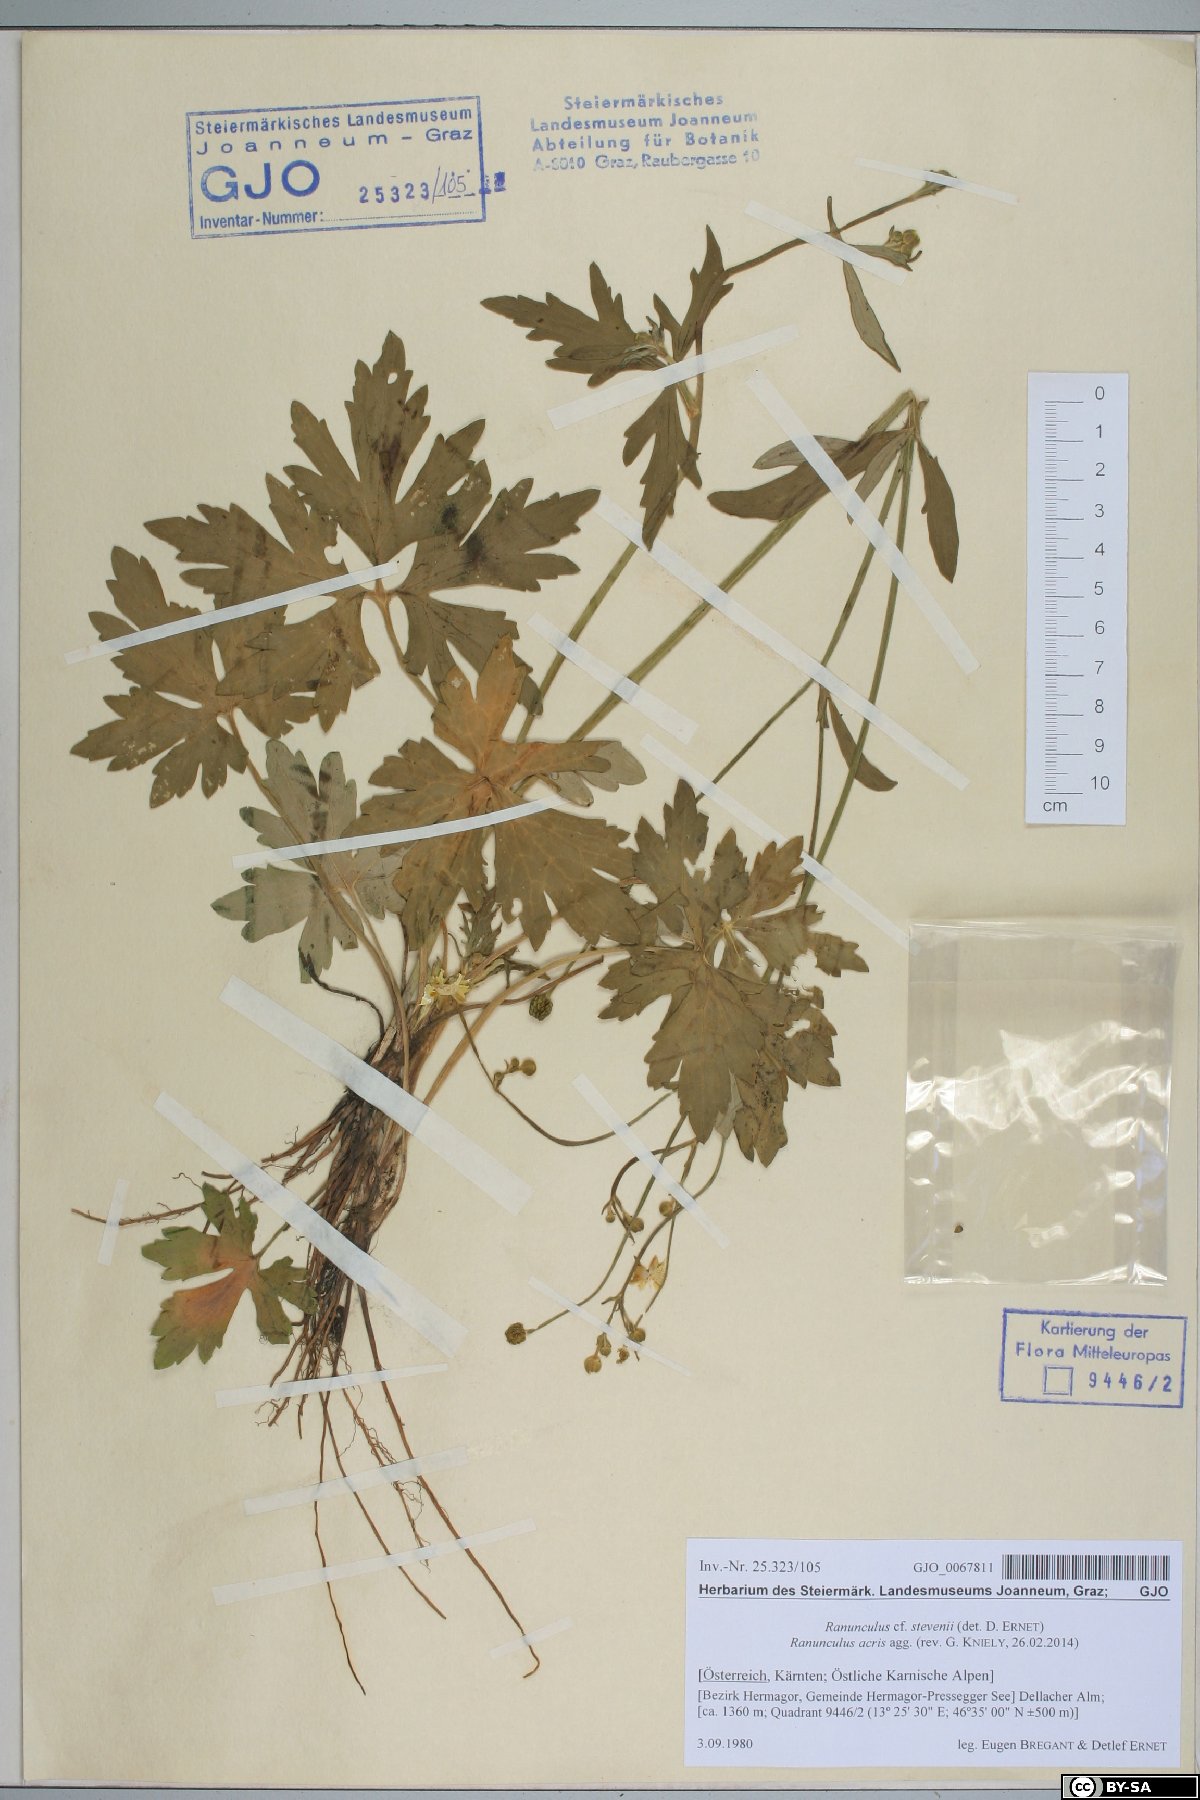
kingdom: Plantae
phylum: Tracheophyta
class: Magnoliopsida
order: Ranunculales
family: Ranunculaceae
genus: Ranunculus
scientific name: Ranunculus acris
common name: Meadow buttercup
